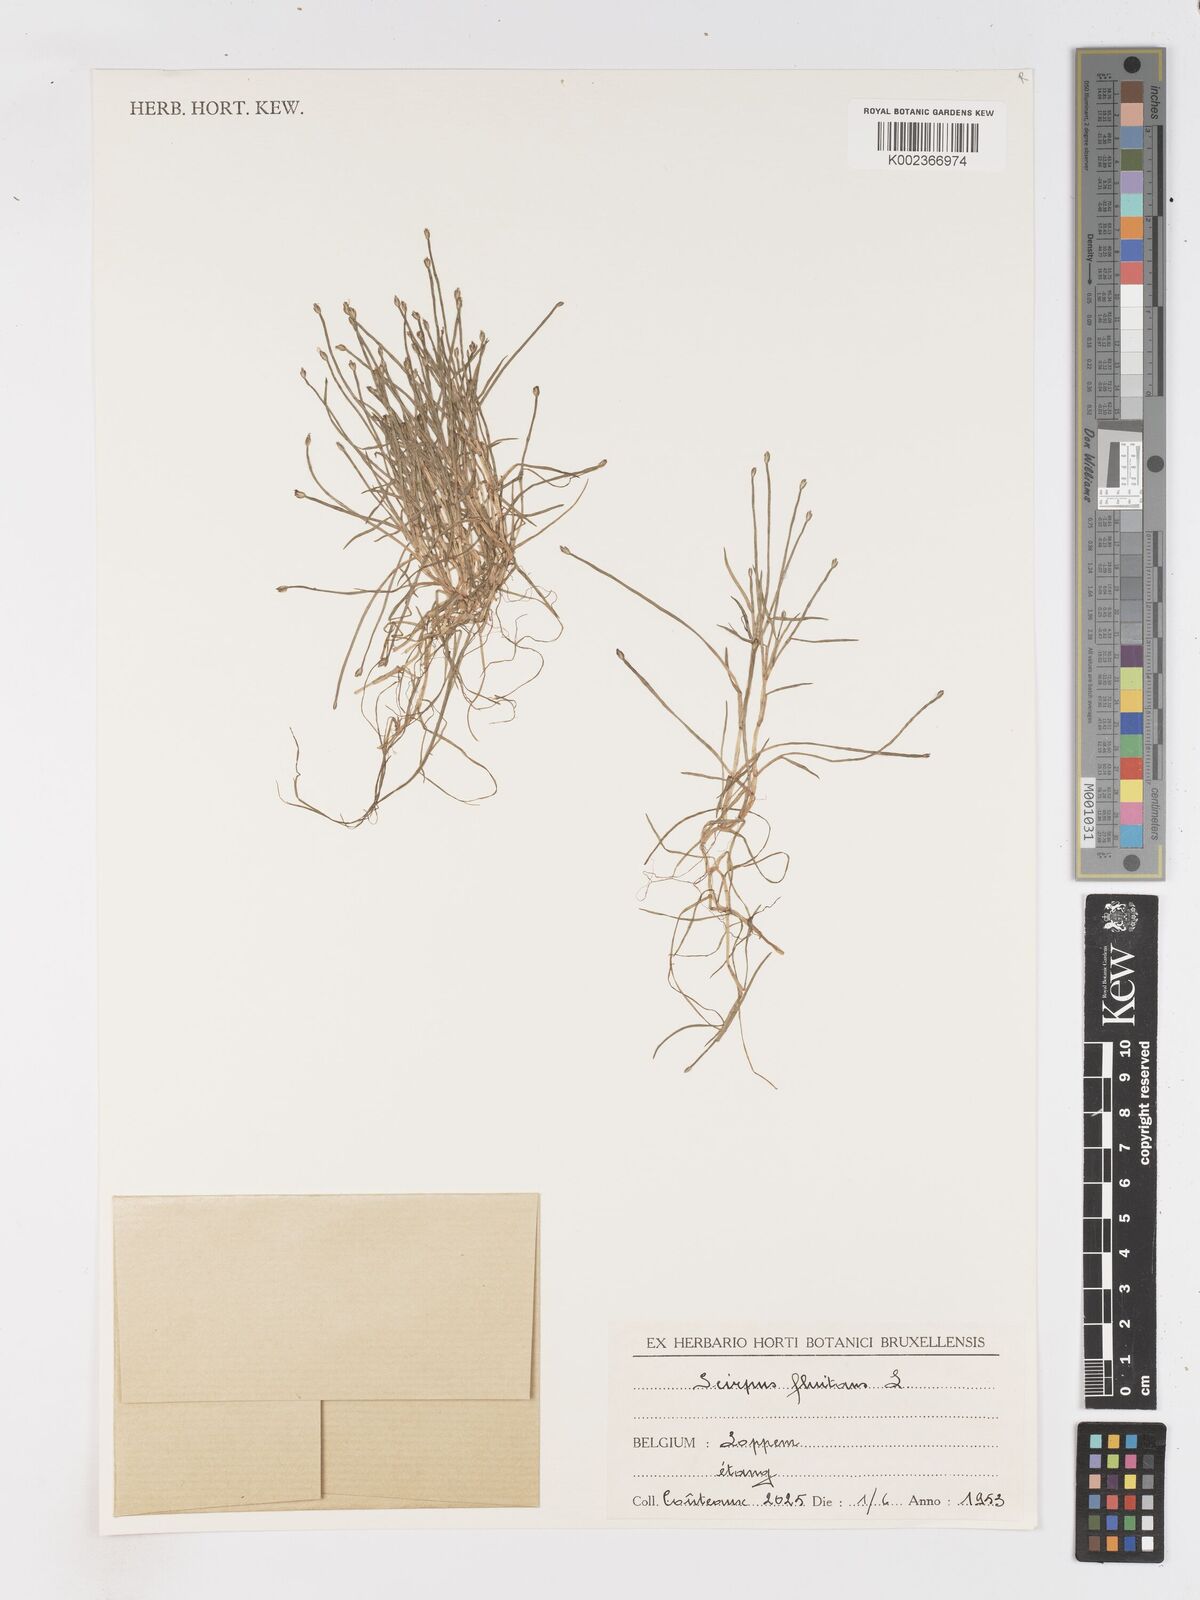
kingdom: Plantae
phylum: Tracheophyta
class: Liliopsida
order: Poales
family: Cyperaceae
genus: Isolepis
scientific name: Isolepis fluitans
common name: Floating club-rush
